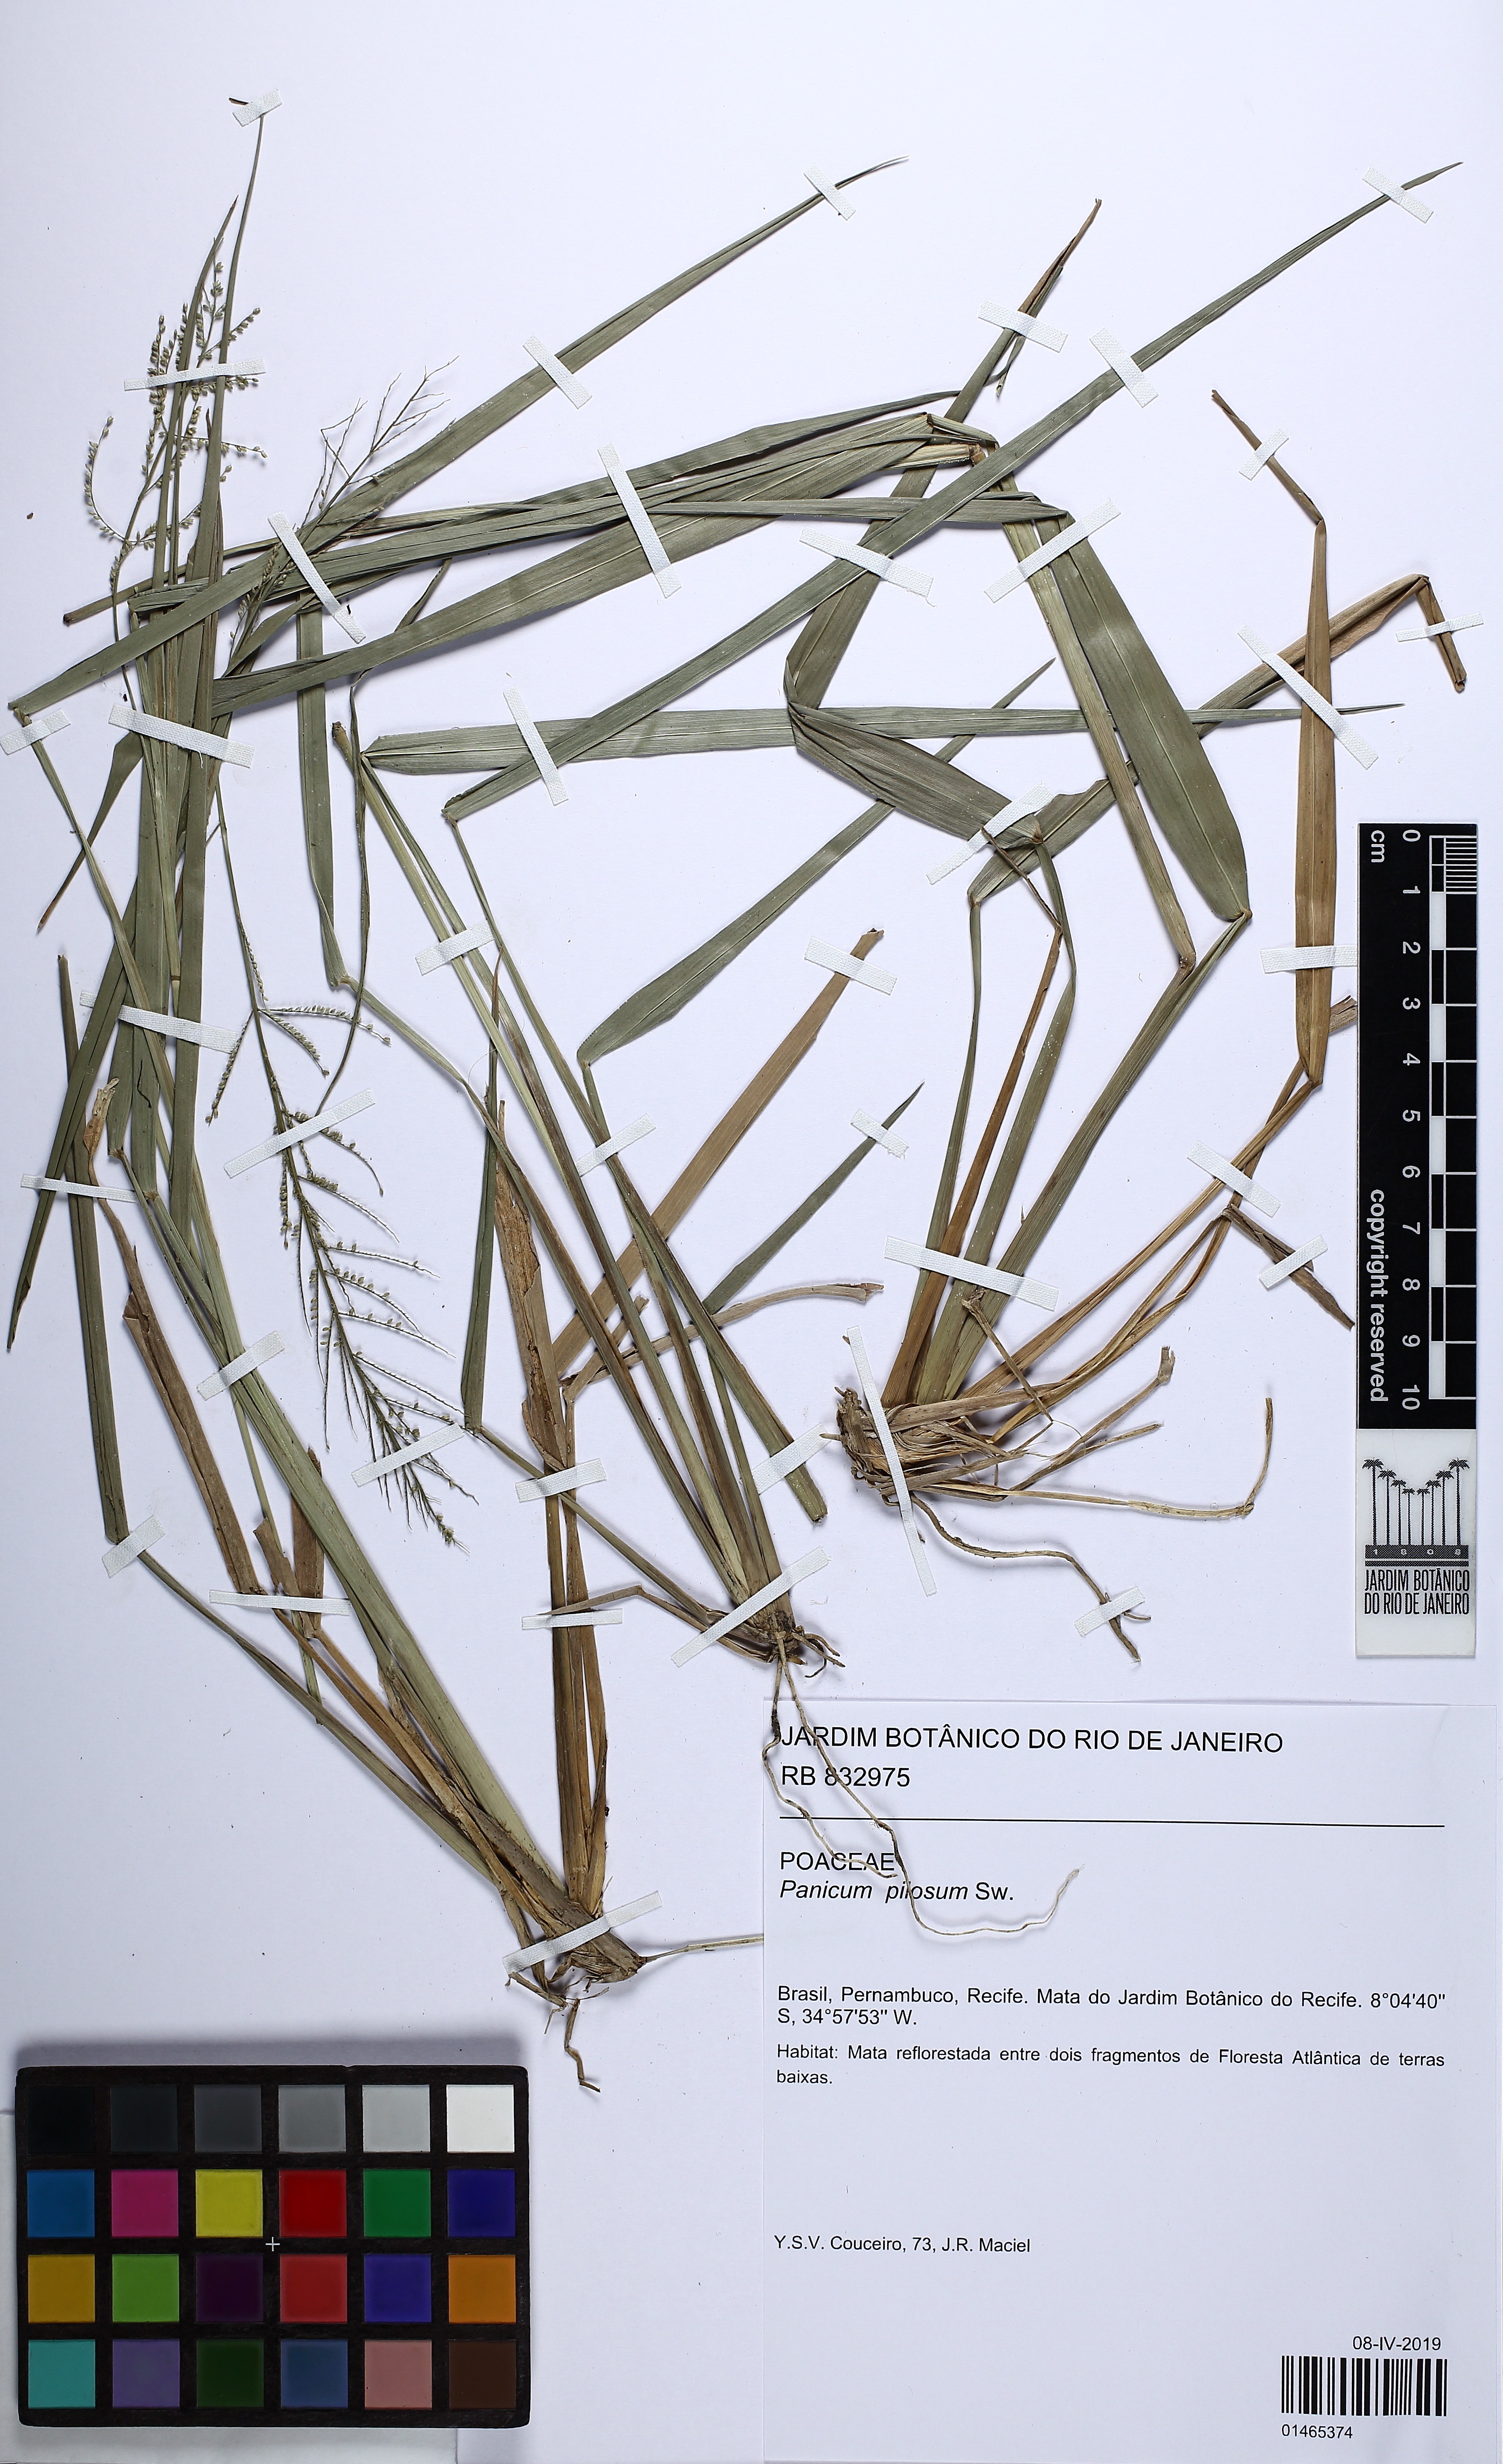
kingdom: Plantae
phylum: Tracheophyta
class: Liliopsida
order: Poales
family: Poaceae
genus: Rugoloa
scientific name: Rugoloa pilosa
